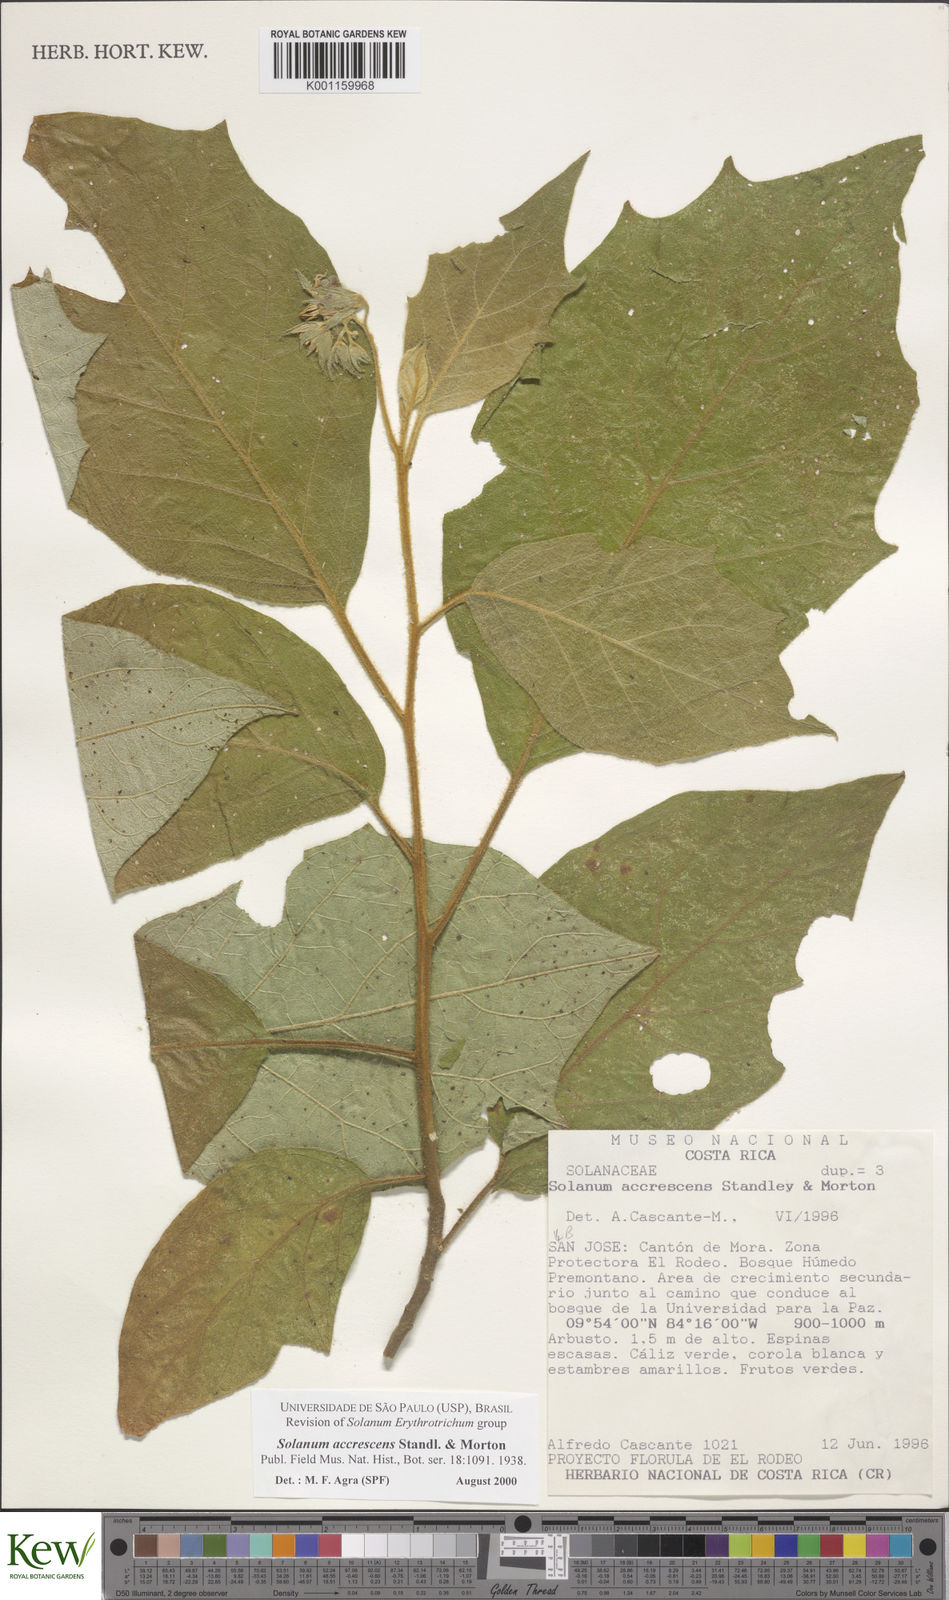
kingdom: Plantae
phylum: Tracheophyta
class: Magnoliopsida
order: Solanales
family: Solanaceae
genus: Solanum
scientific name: Solanum accrescens
